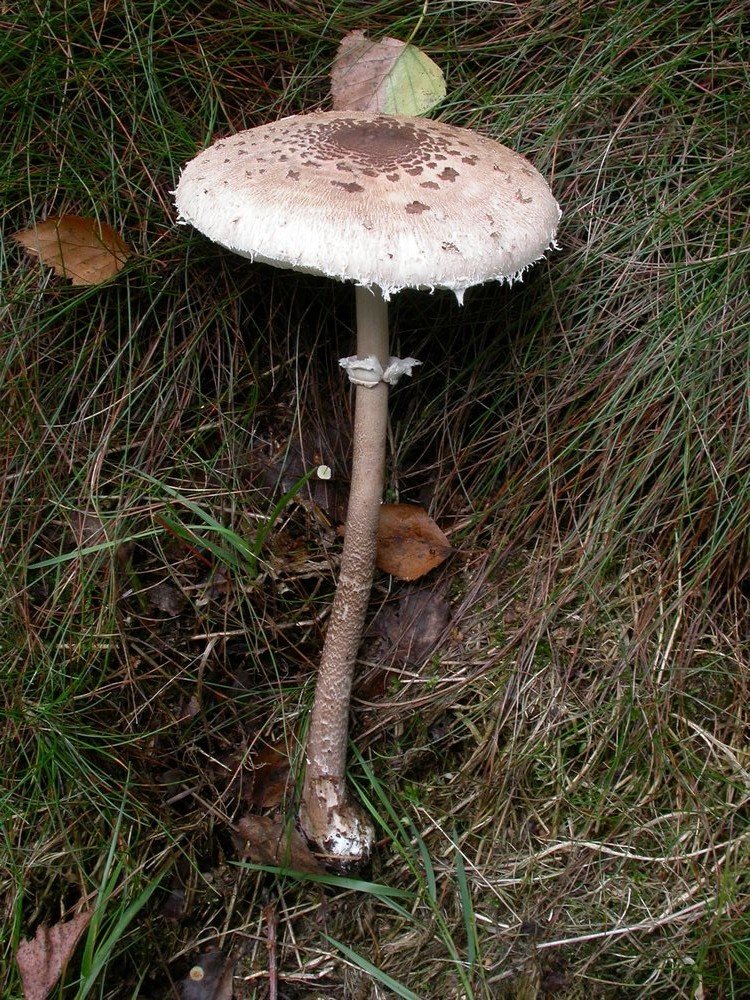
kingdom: Fungi
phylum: Basidiomycota
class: Agaricomycetes
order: Agaricales
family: Agaricaceae
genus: Macrolepiota
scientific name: Macrolepiota fuliginosa
